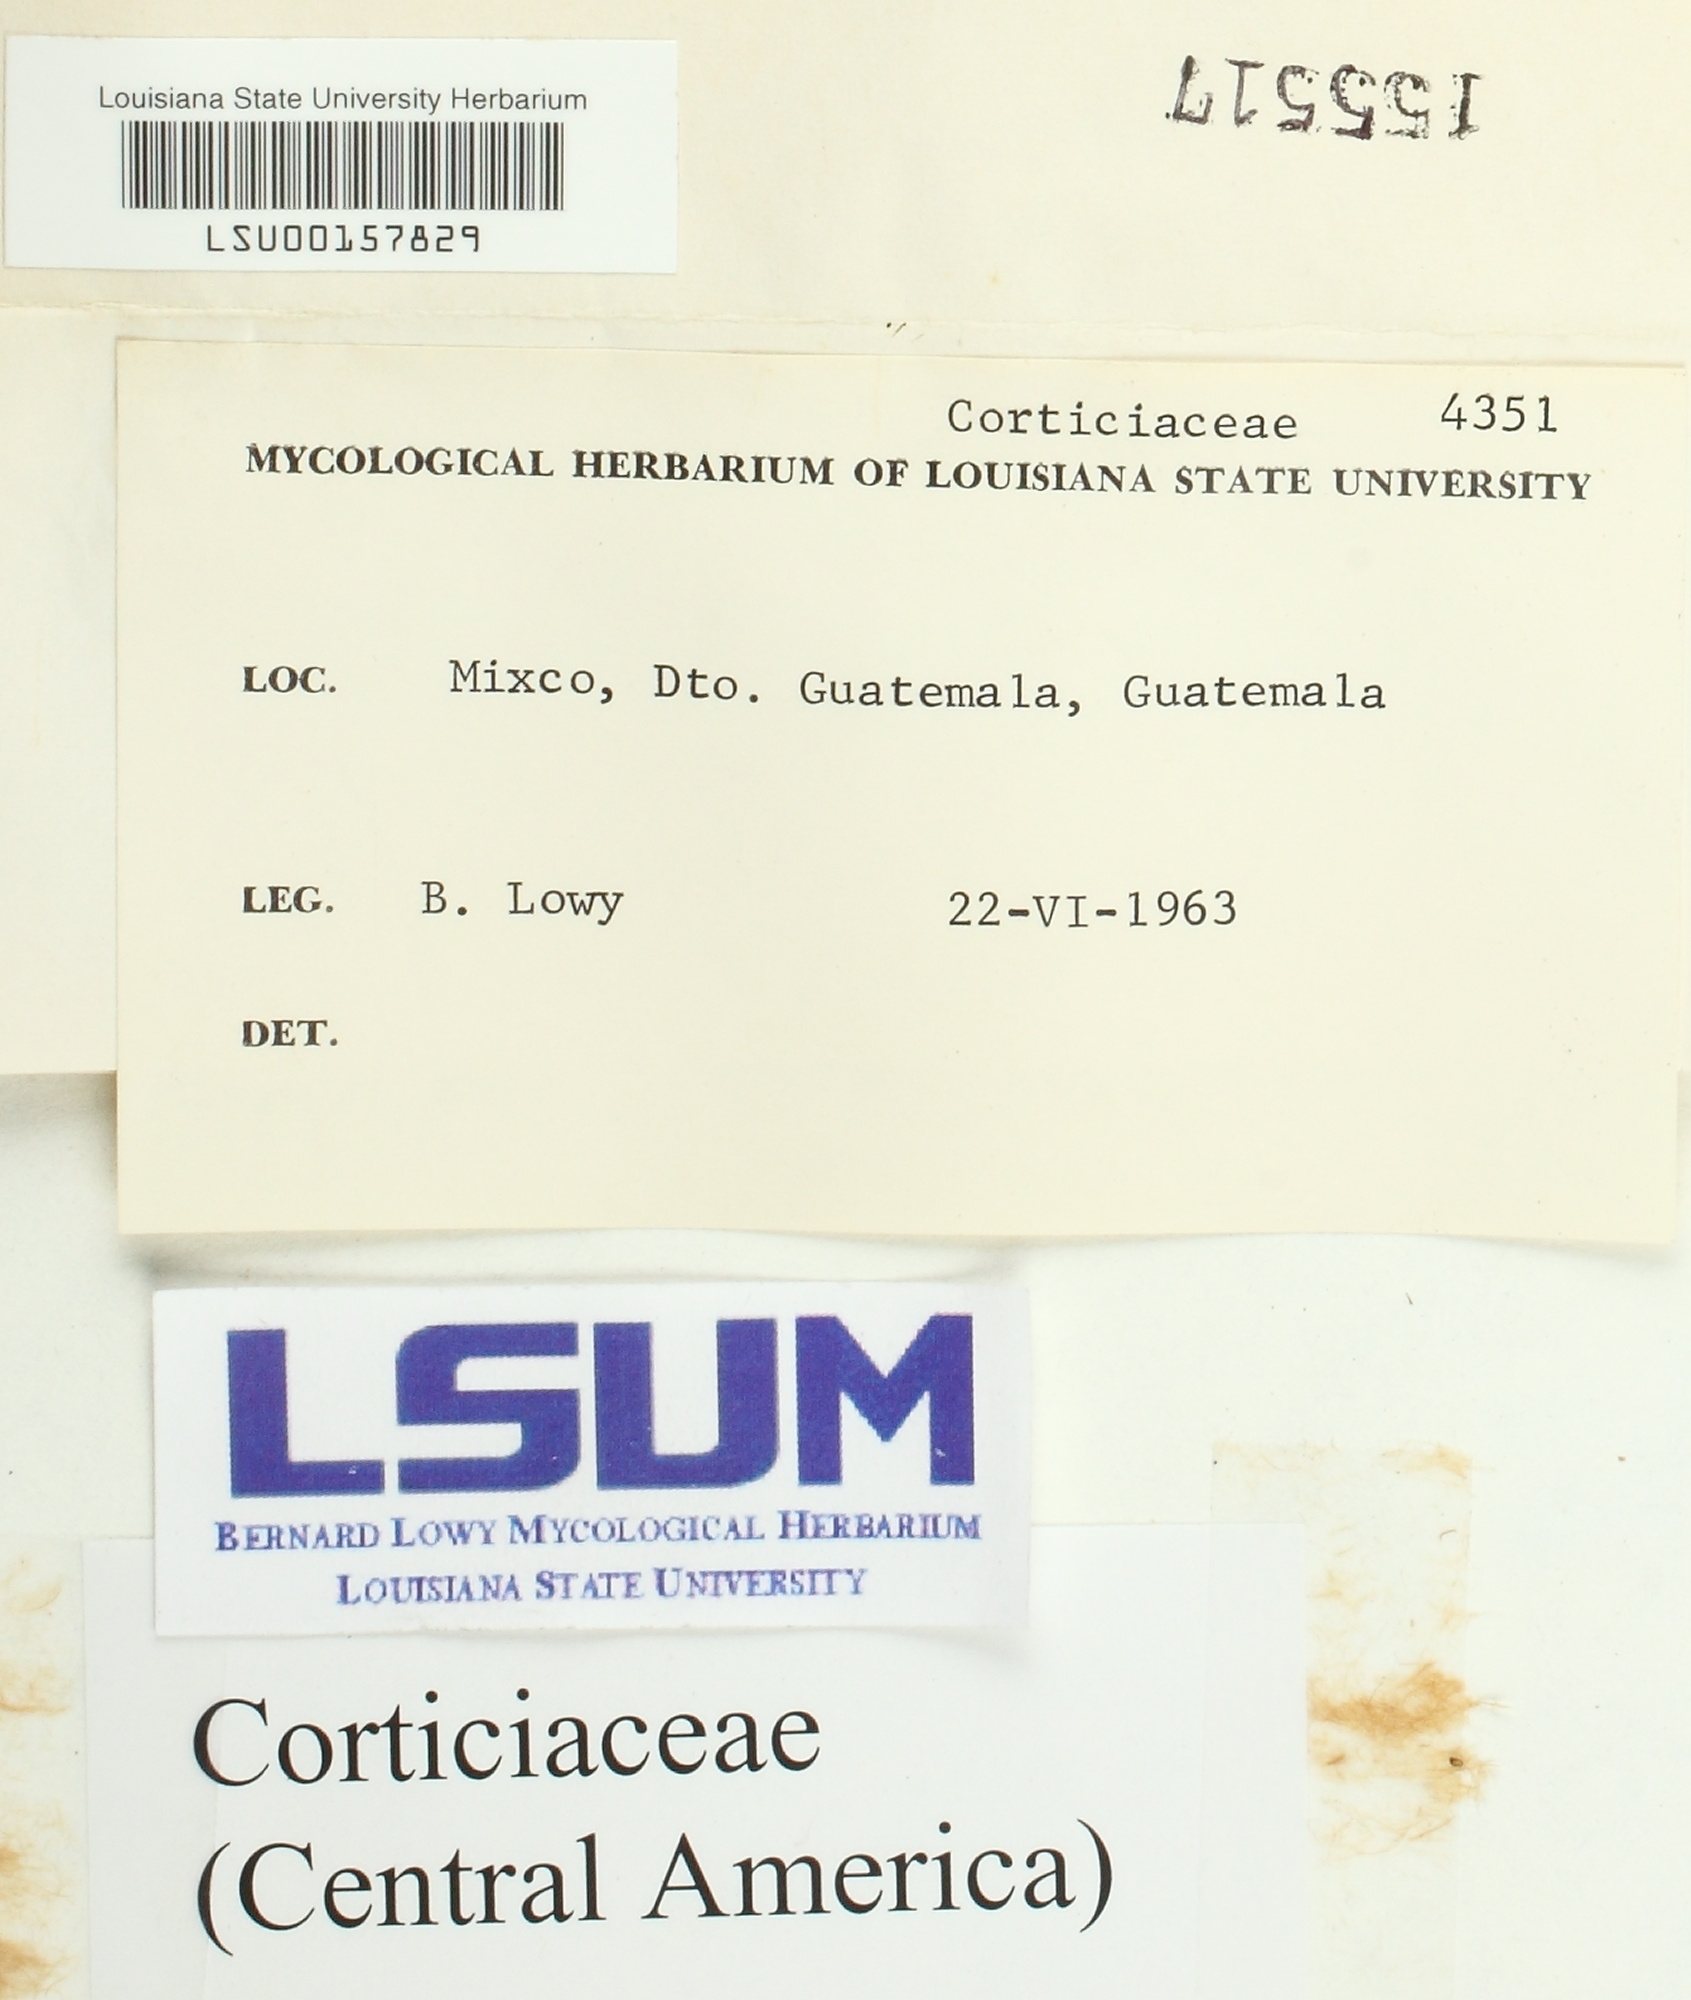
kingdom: Fungi
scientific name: Fungi
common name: Fungi
